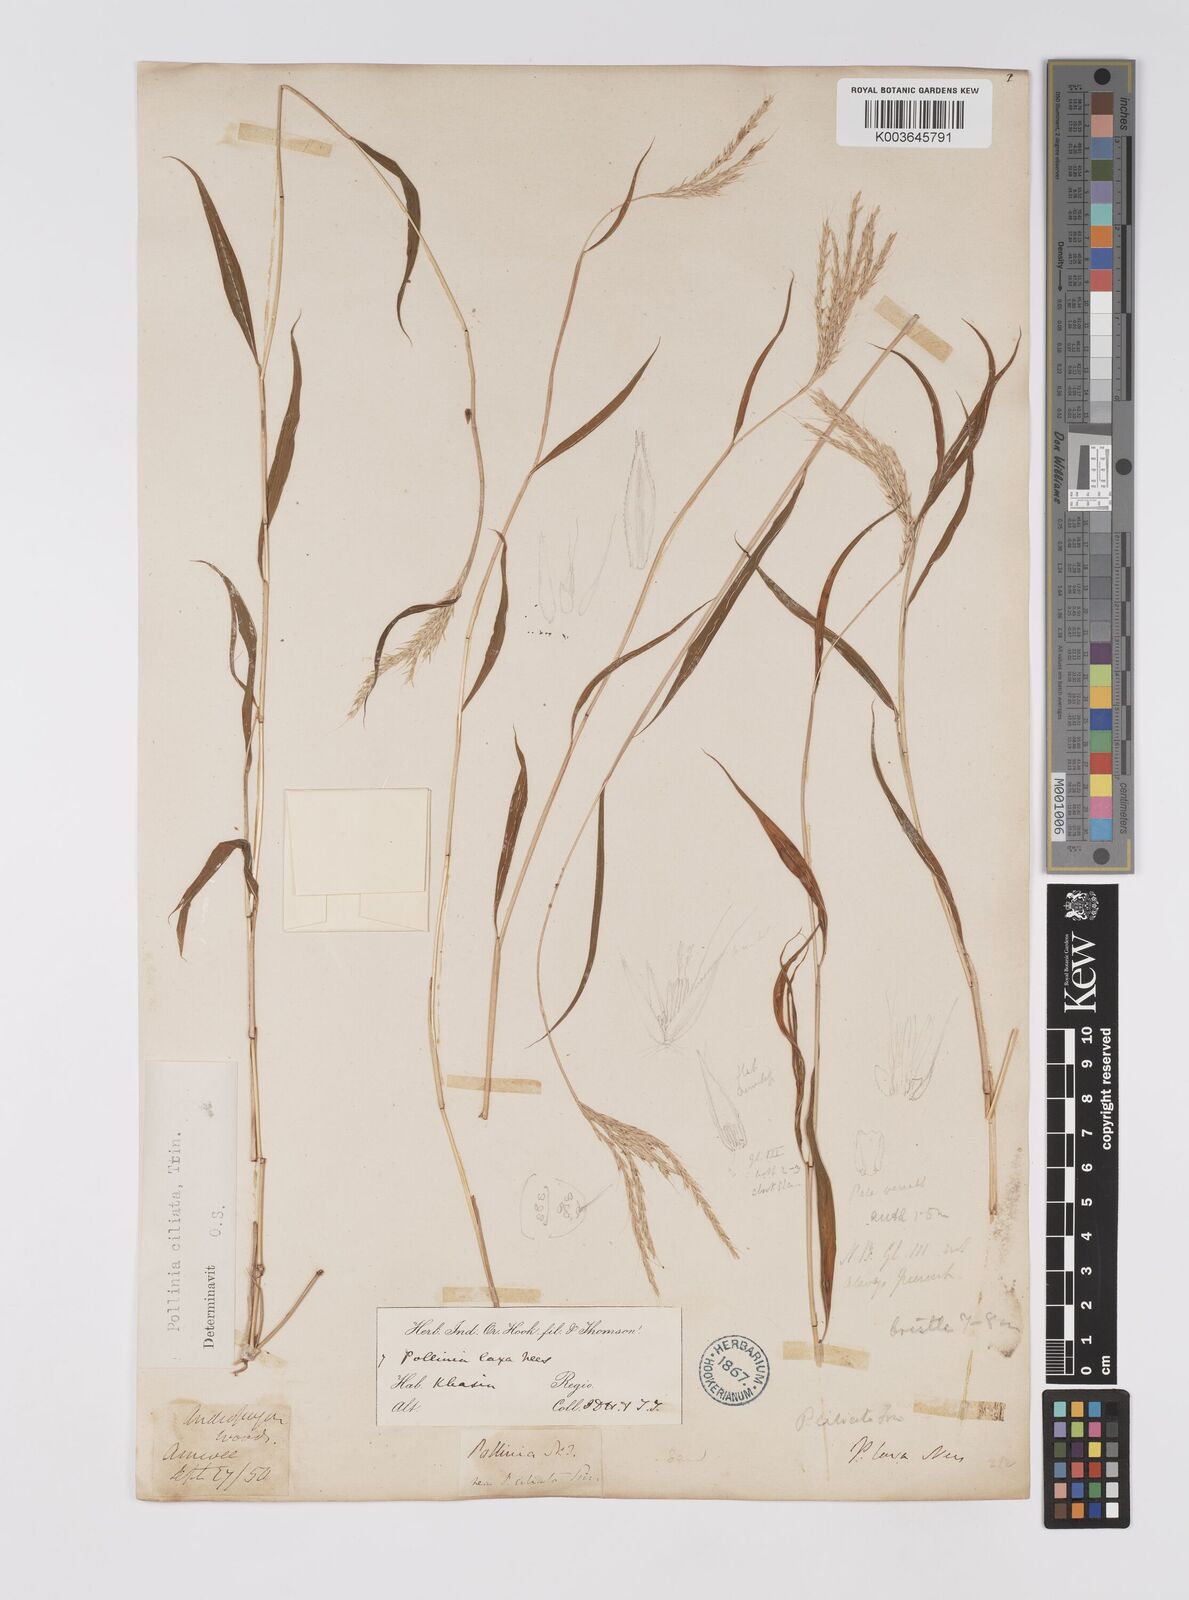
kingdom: Plantae
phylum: Tracheophyta
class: Liliopsida
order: Poales
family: Poaceae
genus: Microstegium
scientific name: Microstegium fasciculatum
